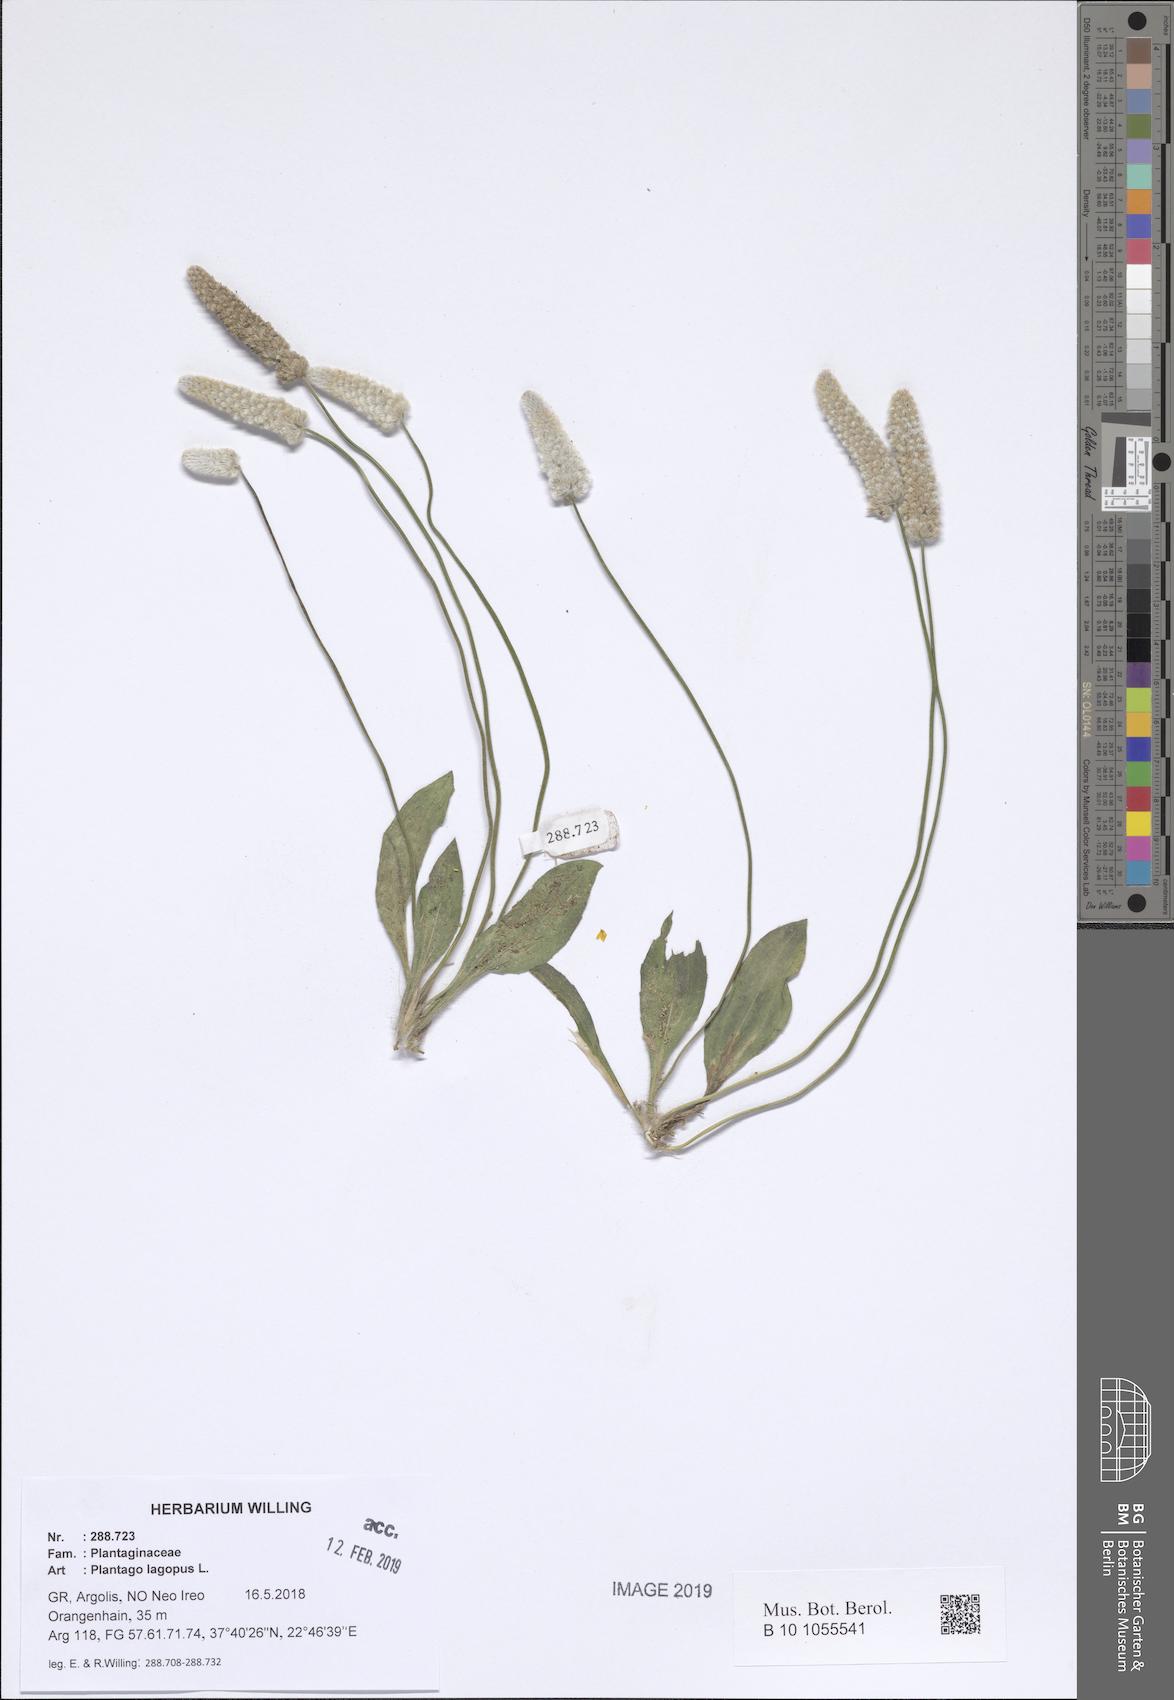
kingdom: Plantae
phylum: Tracheophyta
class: Magnoliopsida
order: Lamiales
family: Plantaginaceae
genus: Plantago
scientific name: Plantago lagopus
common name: Hare-foot plantain
